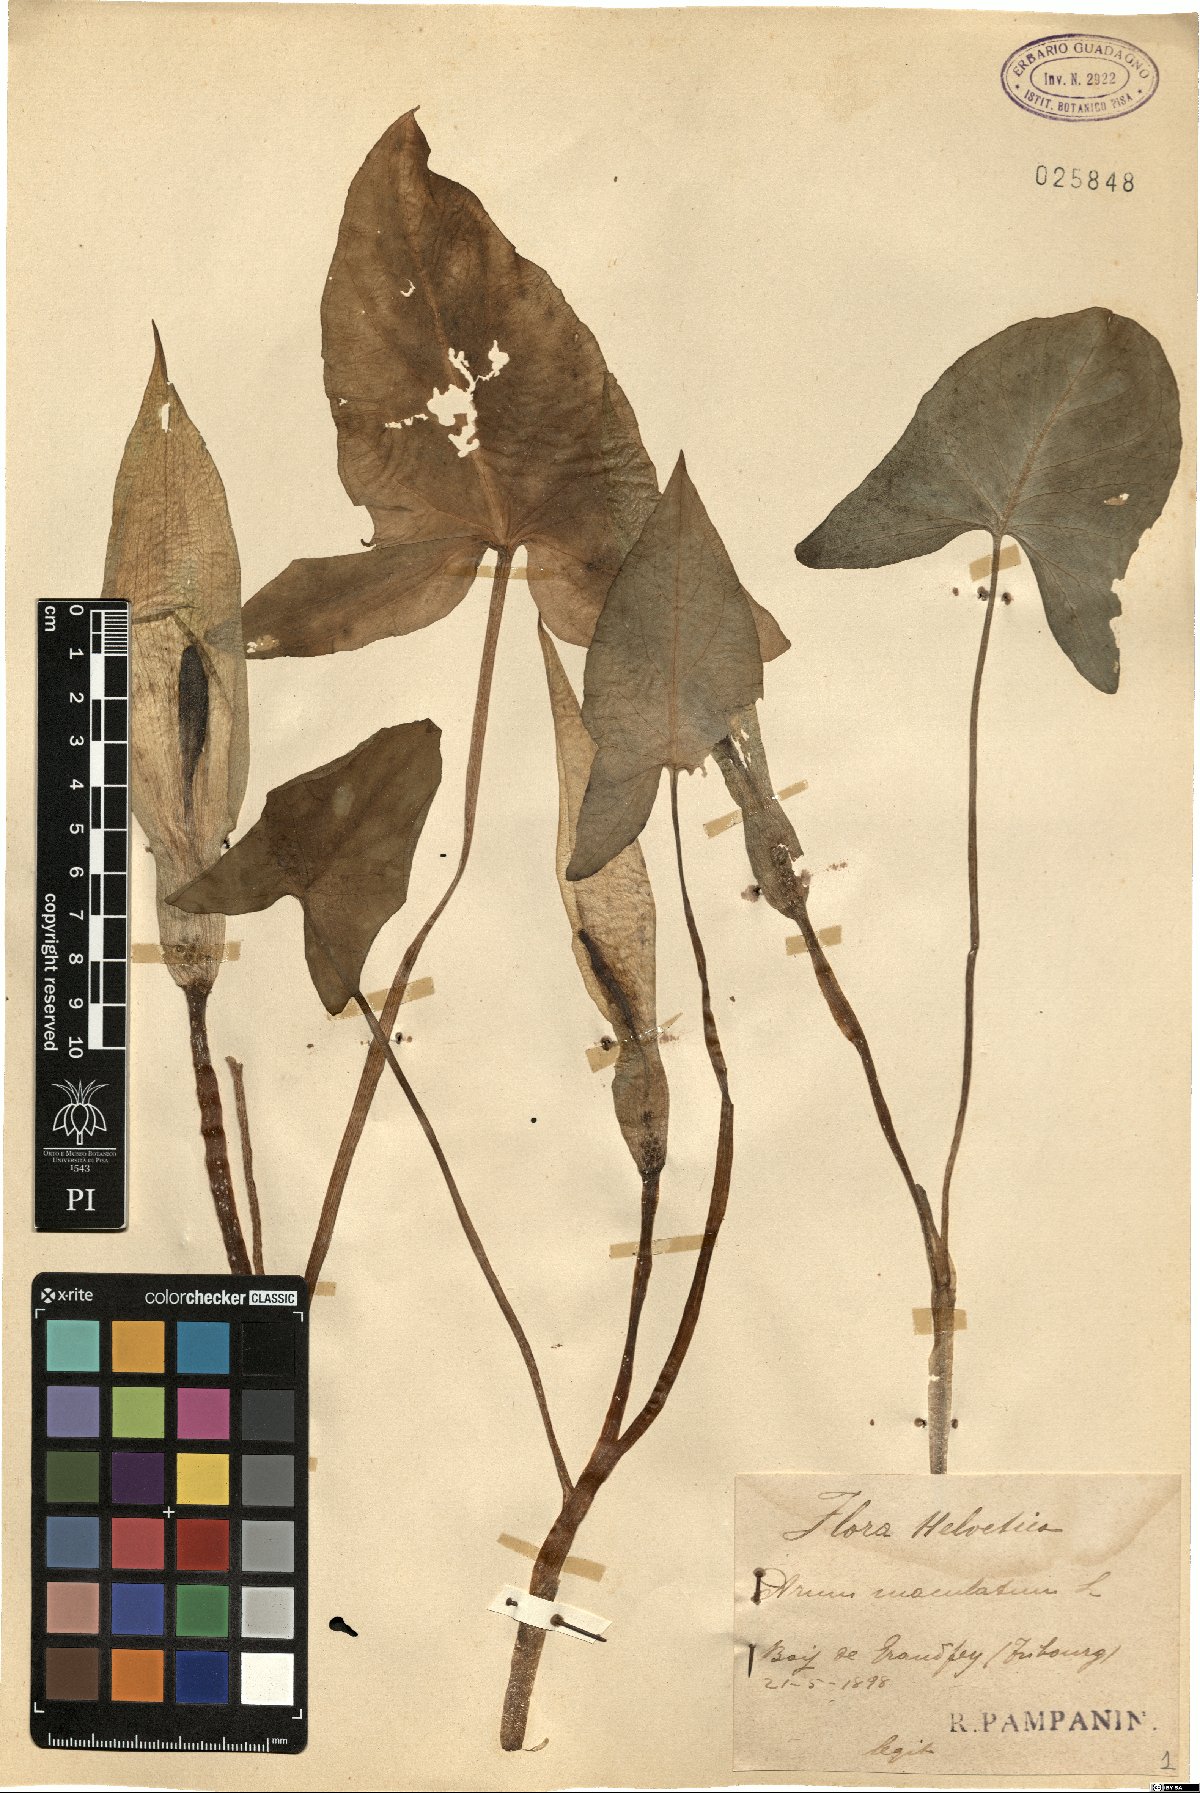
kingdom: Plantae
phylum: Tracheophyta
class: Liliopsida
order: Alismatales
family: Araceae
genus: Arum
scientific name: Arum maculatum
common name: Lords-and-ladies
